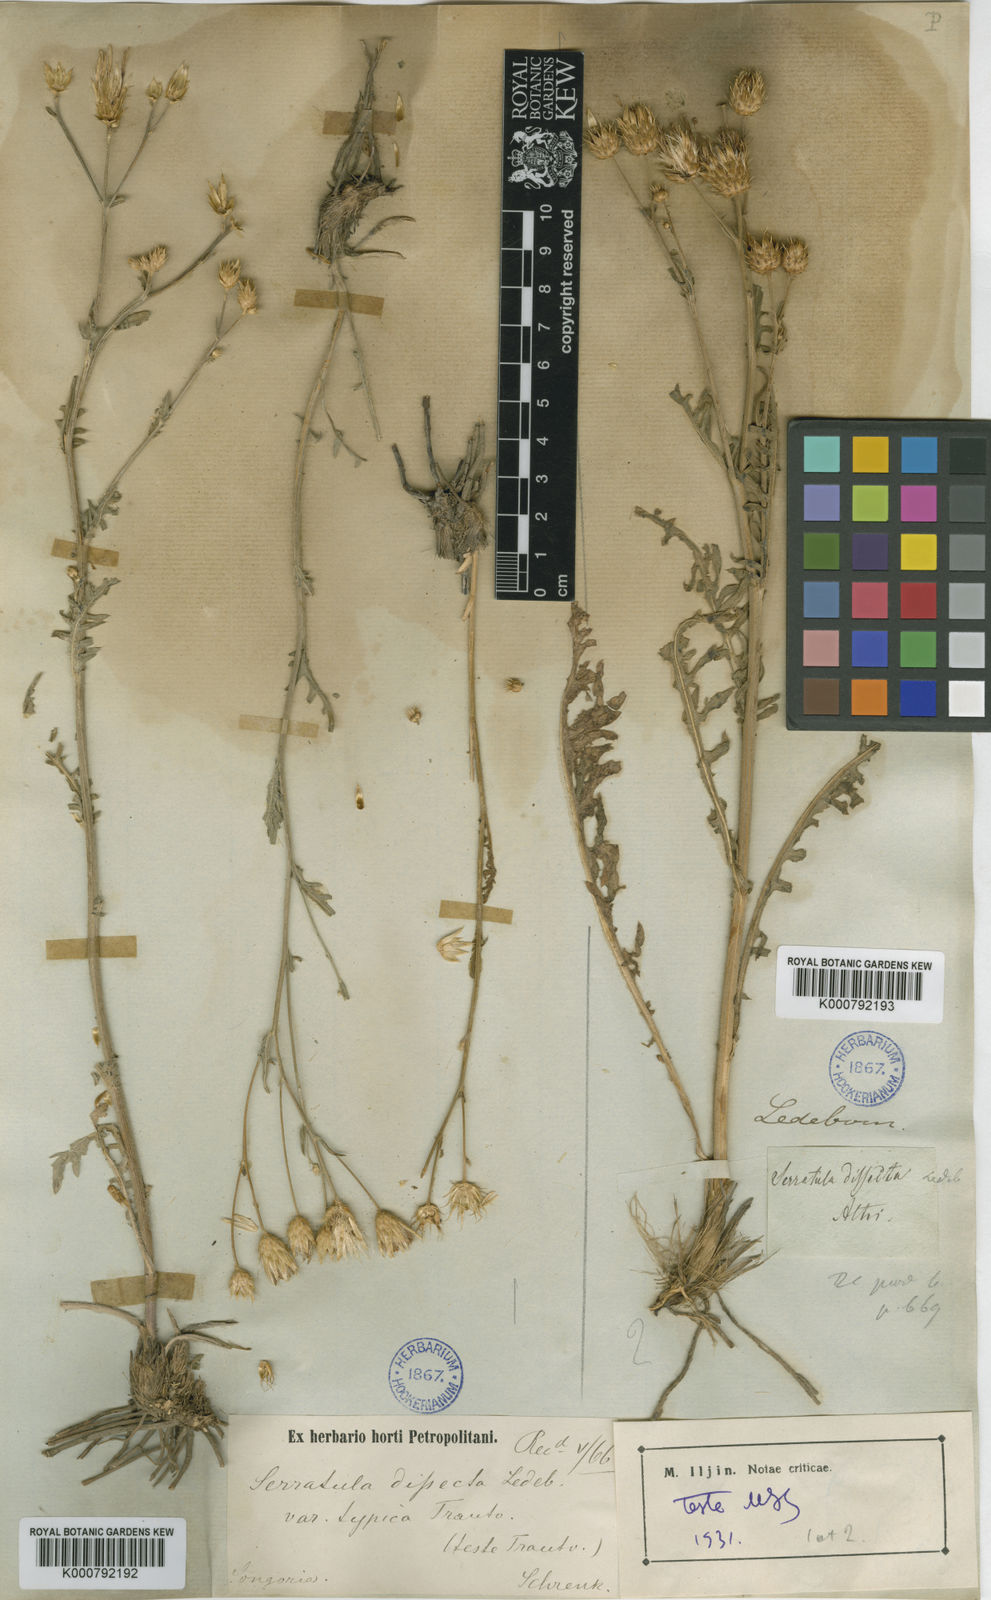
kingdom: Plantae
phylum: Tracheophyta
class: Magnoliopsida
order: Asterales
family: Asteraceae
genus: Klasea
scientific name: Klasea dissecta
